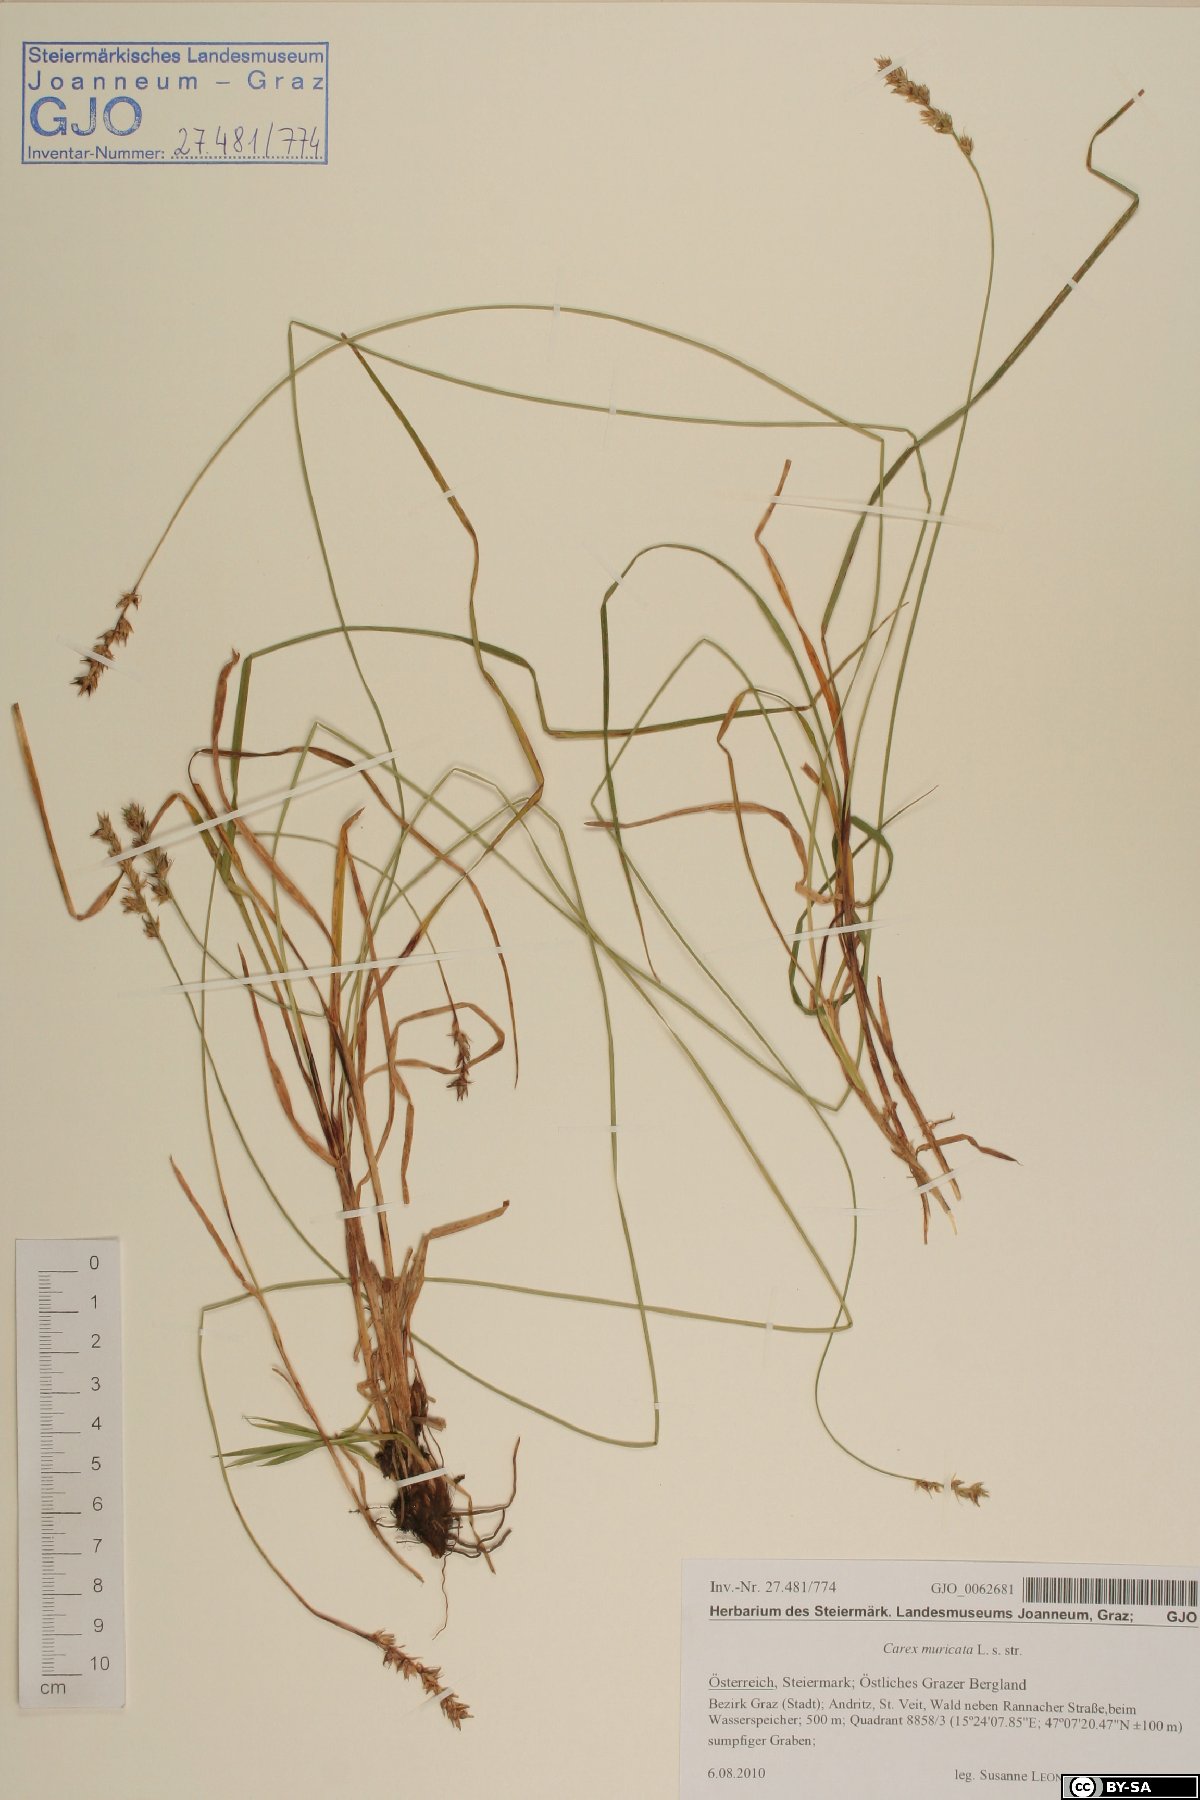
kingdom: Plantae
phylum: Tracheophyta
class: Liliopsida
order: Poales
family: Cyperaceae
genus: Carex
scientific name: Carex muricata
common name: Rough sedge
